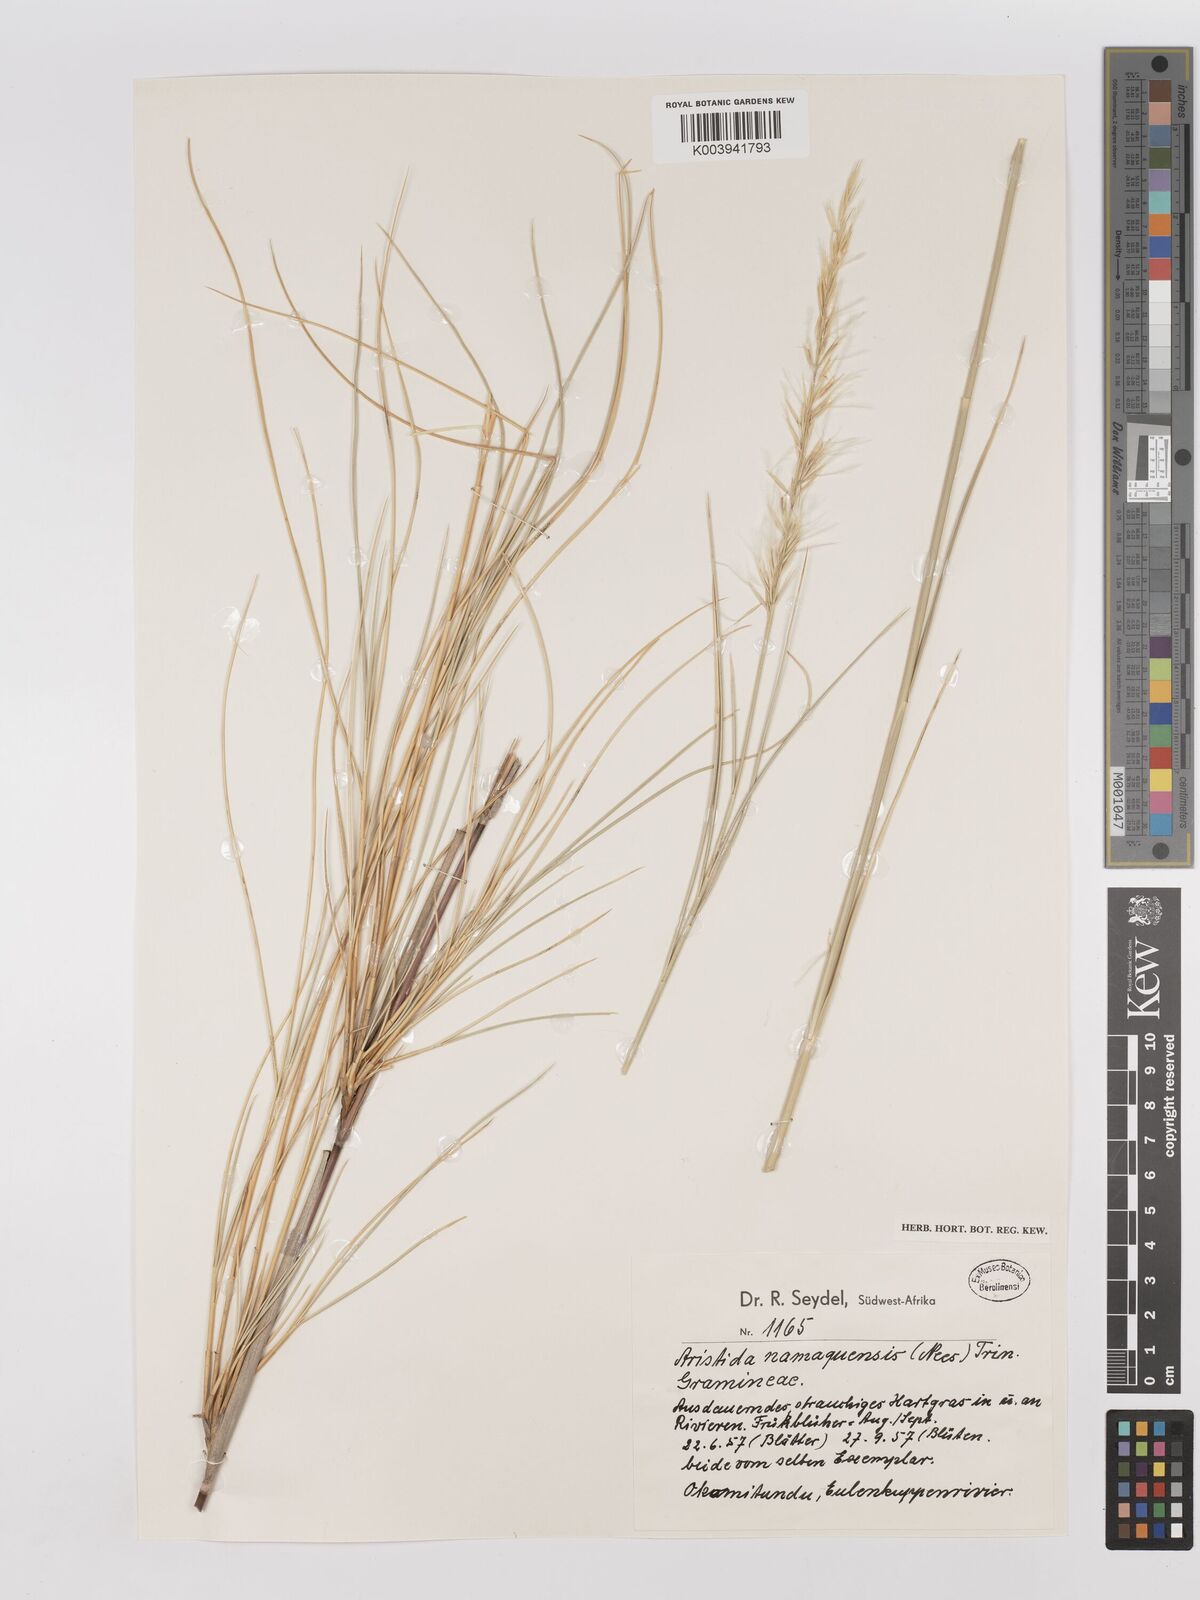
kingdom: Plantae
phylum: Tracheophyta
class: Liliopsida
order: Poales
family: Poaceae
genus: Stipagrostis
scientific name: Stipagrostis namaquensis
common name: River bushman grass
